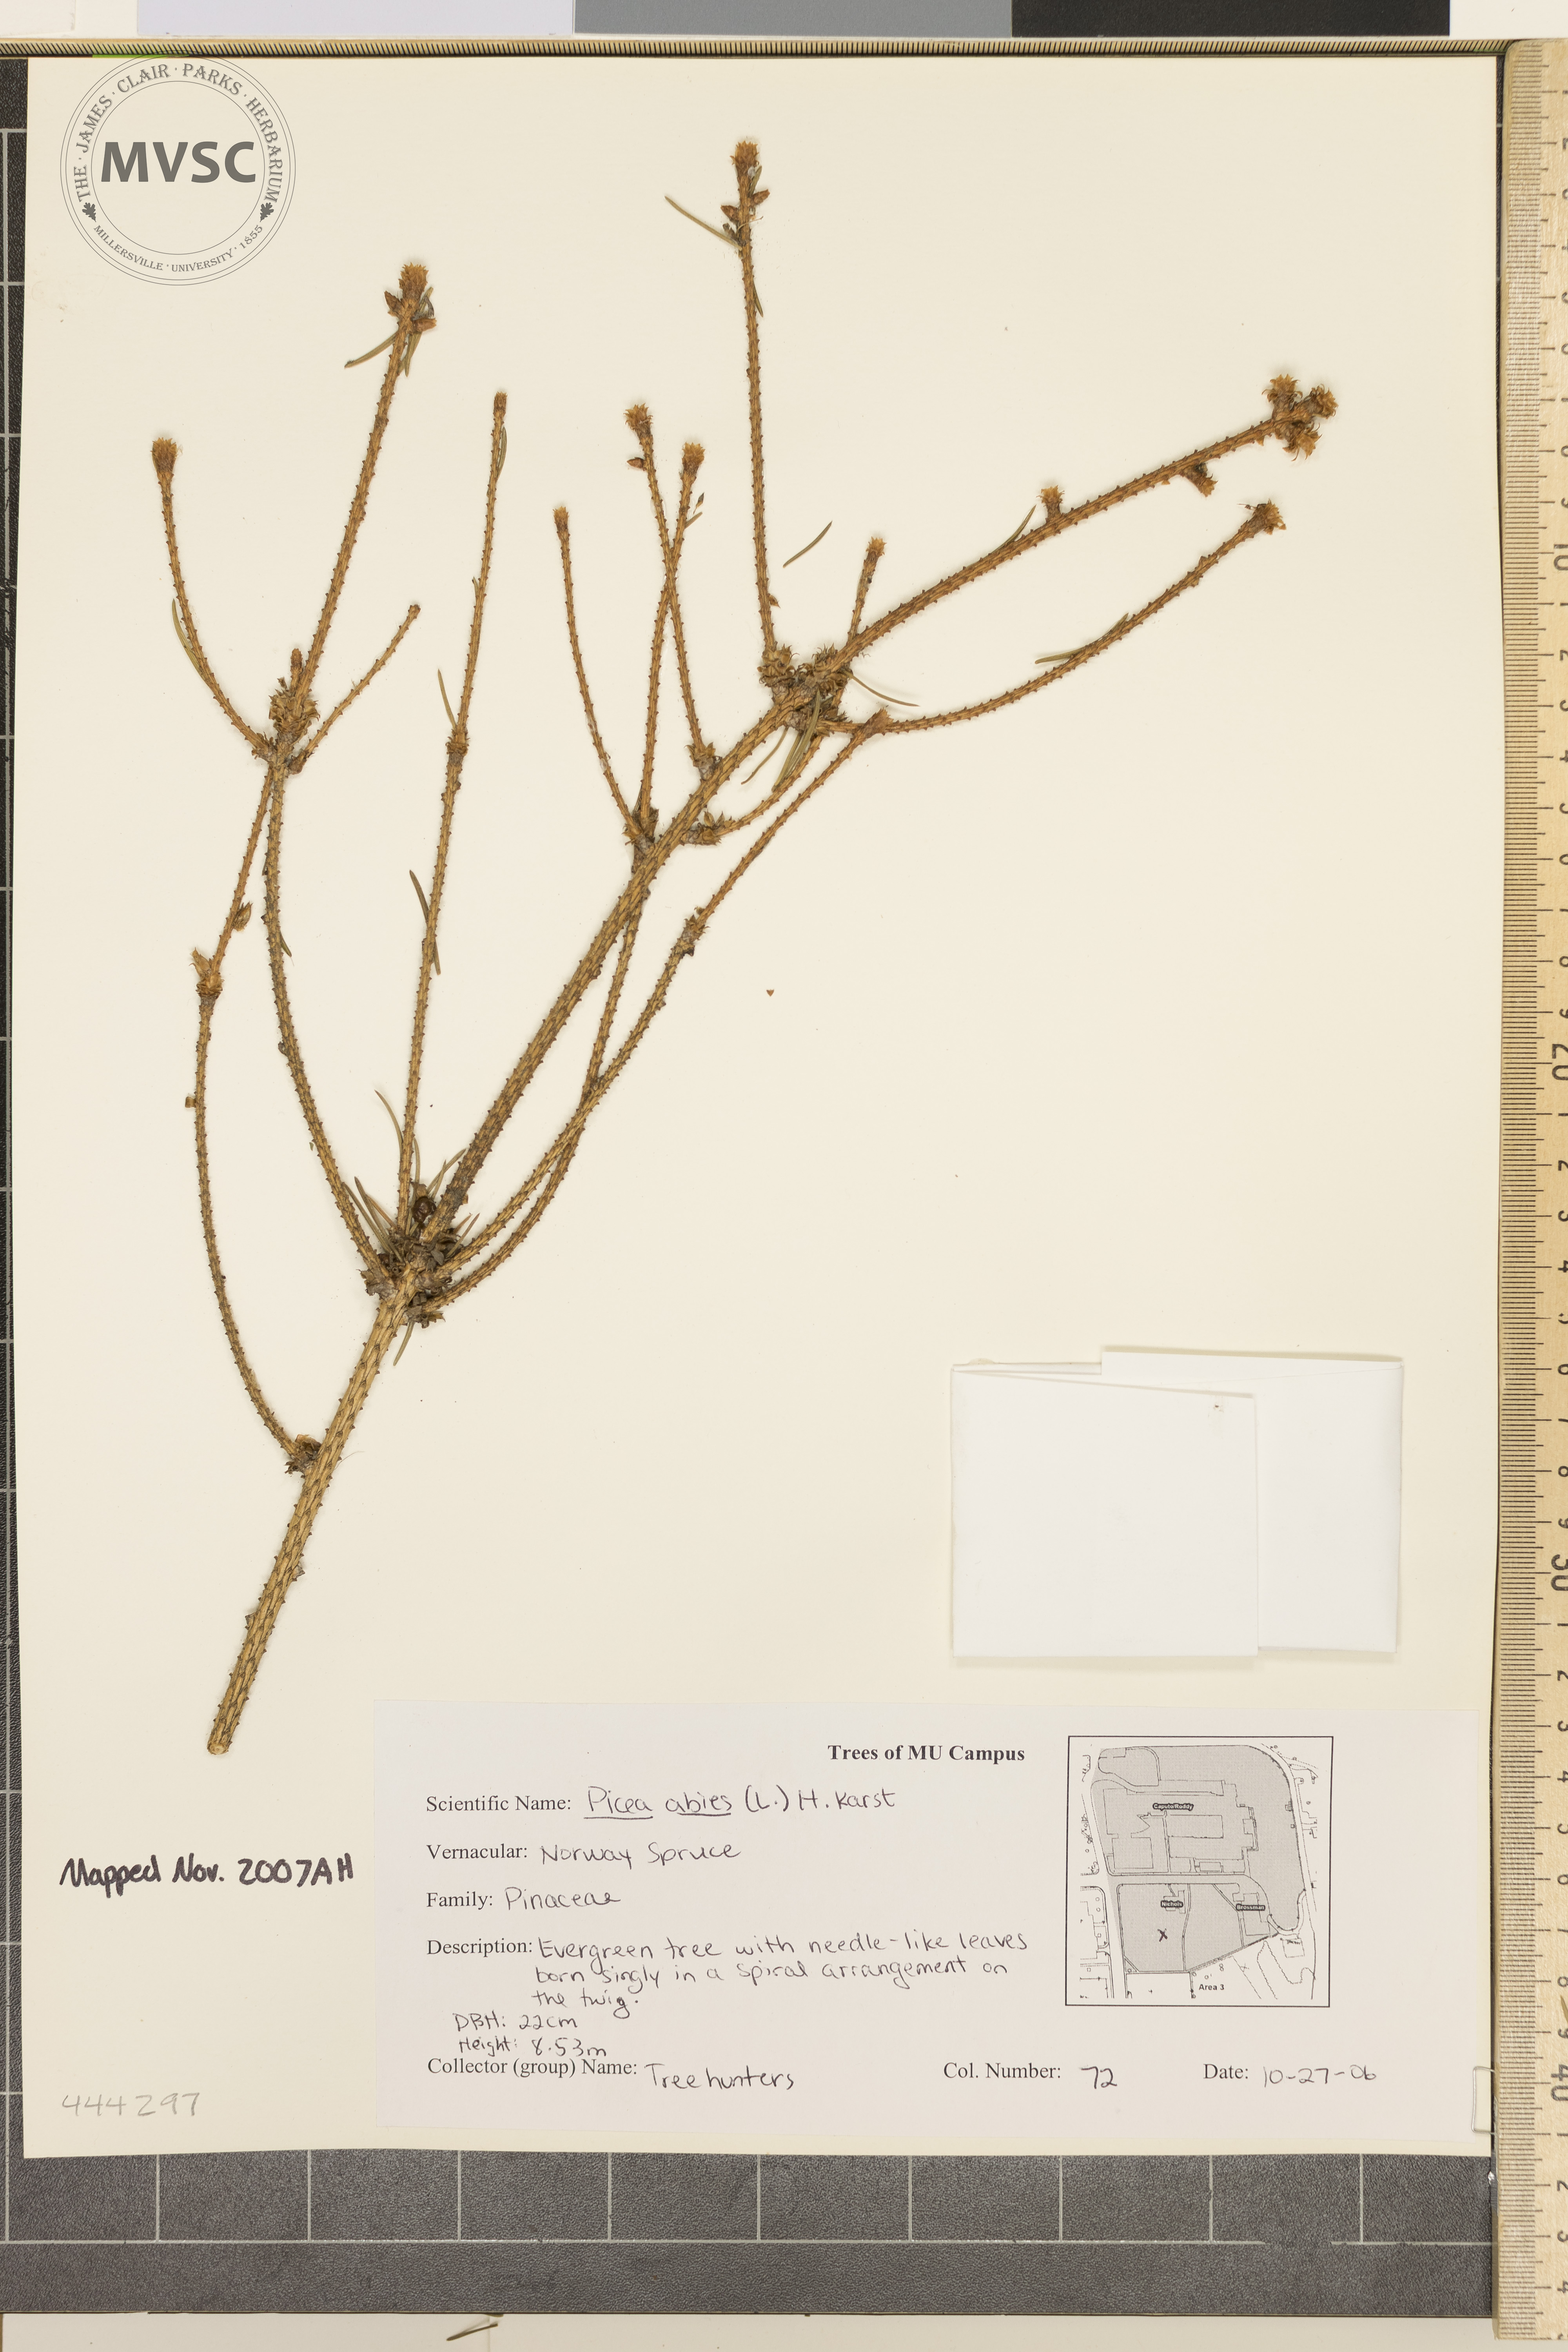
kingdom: Plantae
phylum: Tracheophyta
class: Pinopsida
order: Pinales
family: Pinaceae
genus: Picea
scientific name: Picea abies
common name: Norway Spruce
